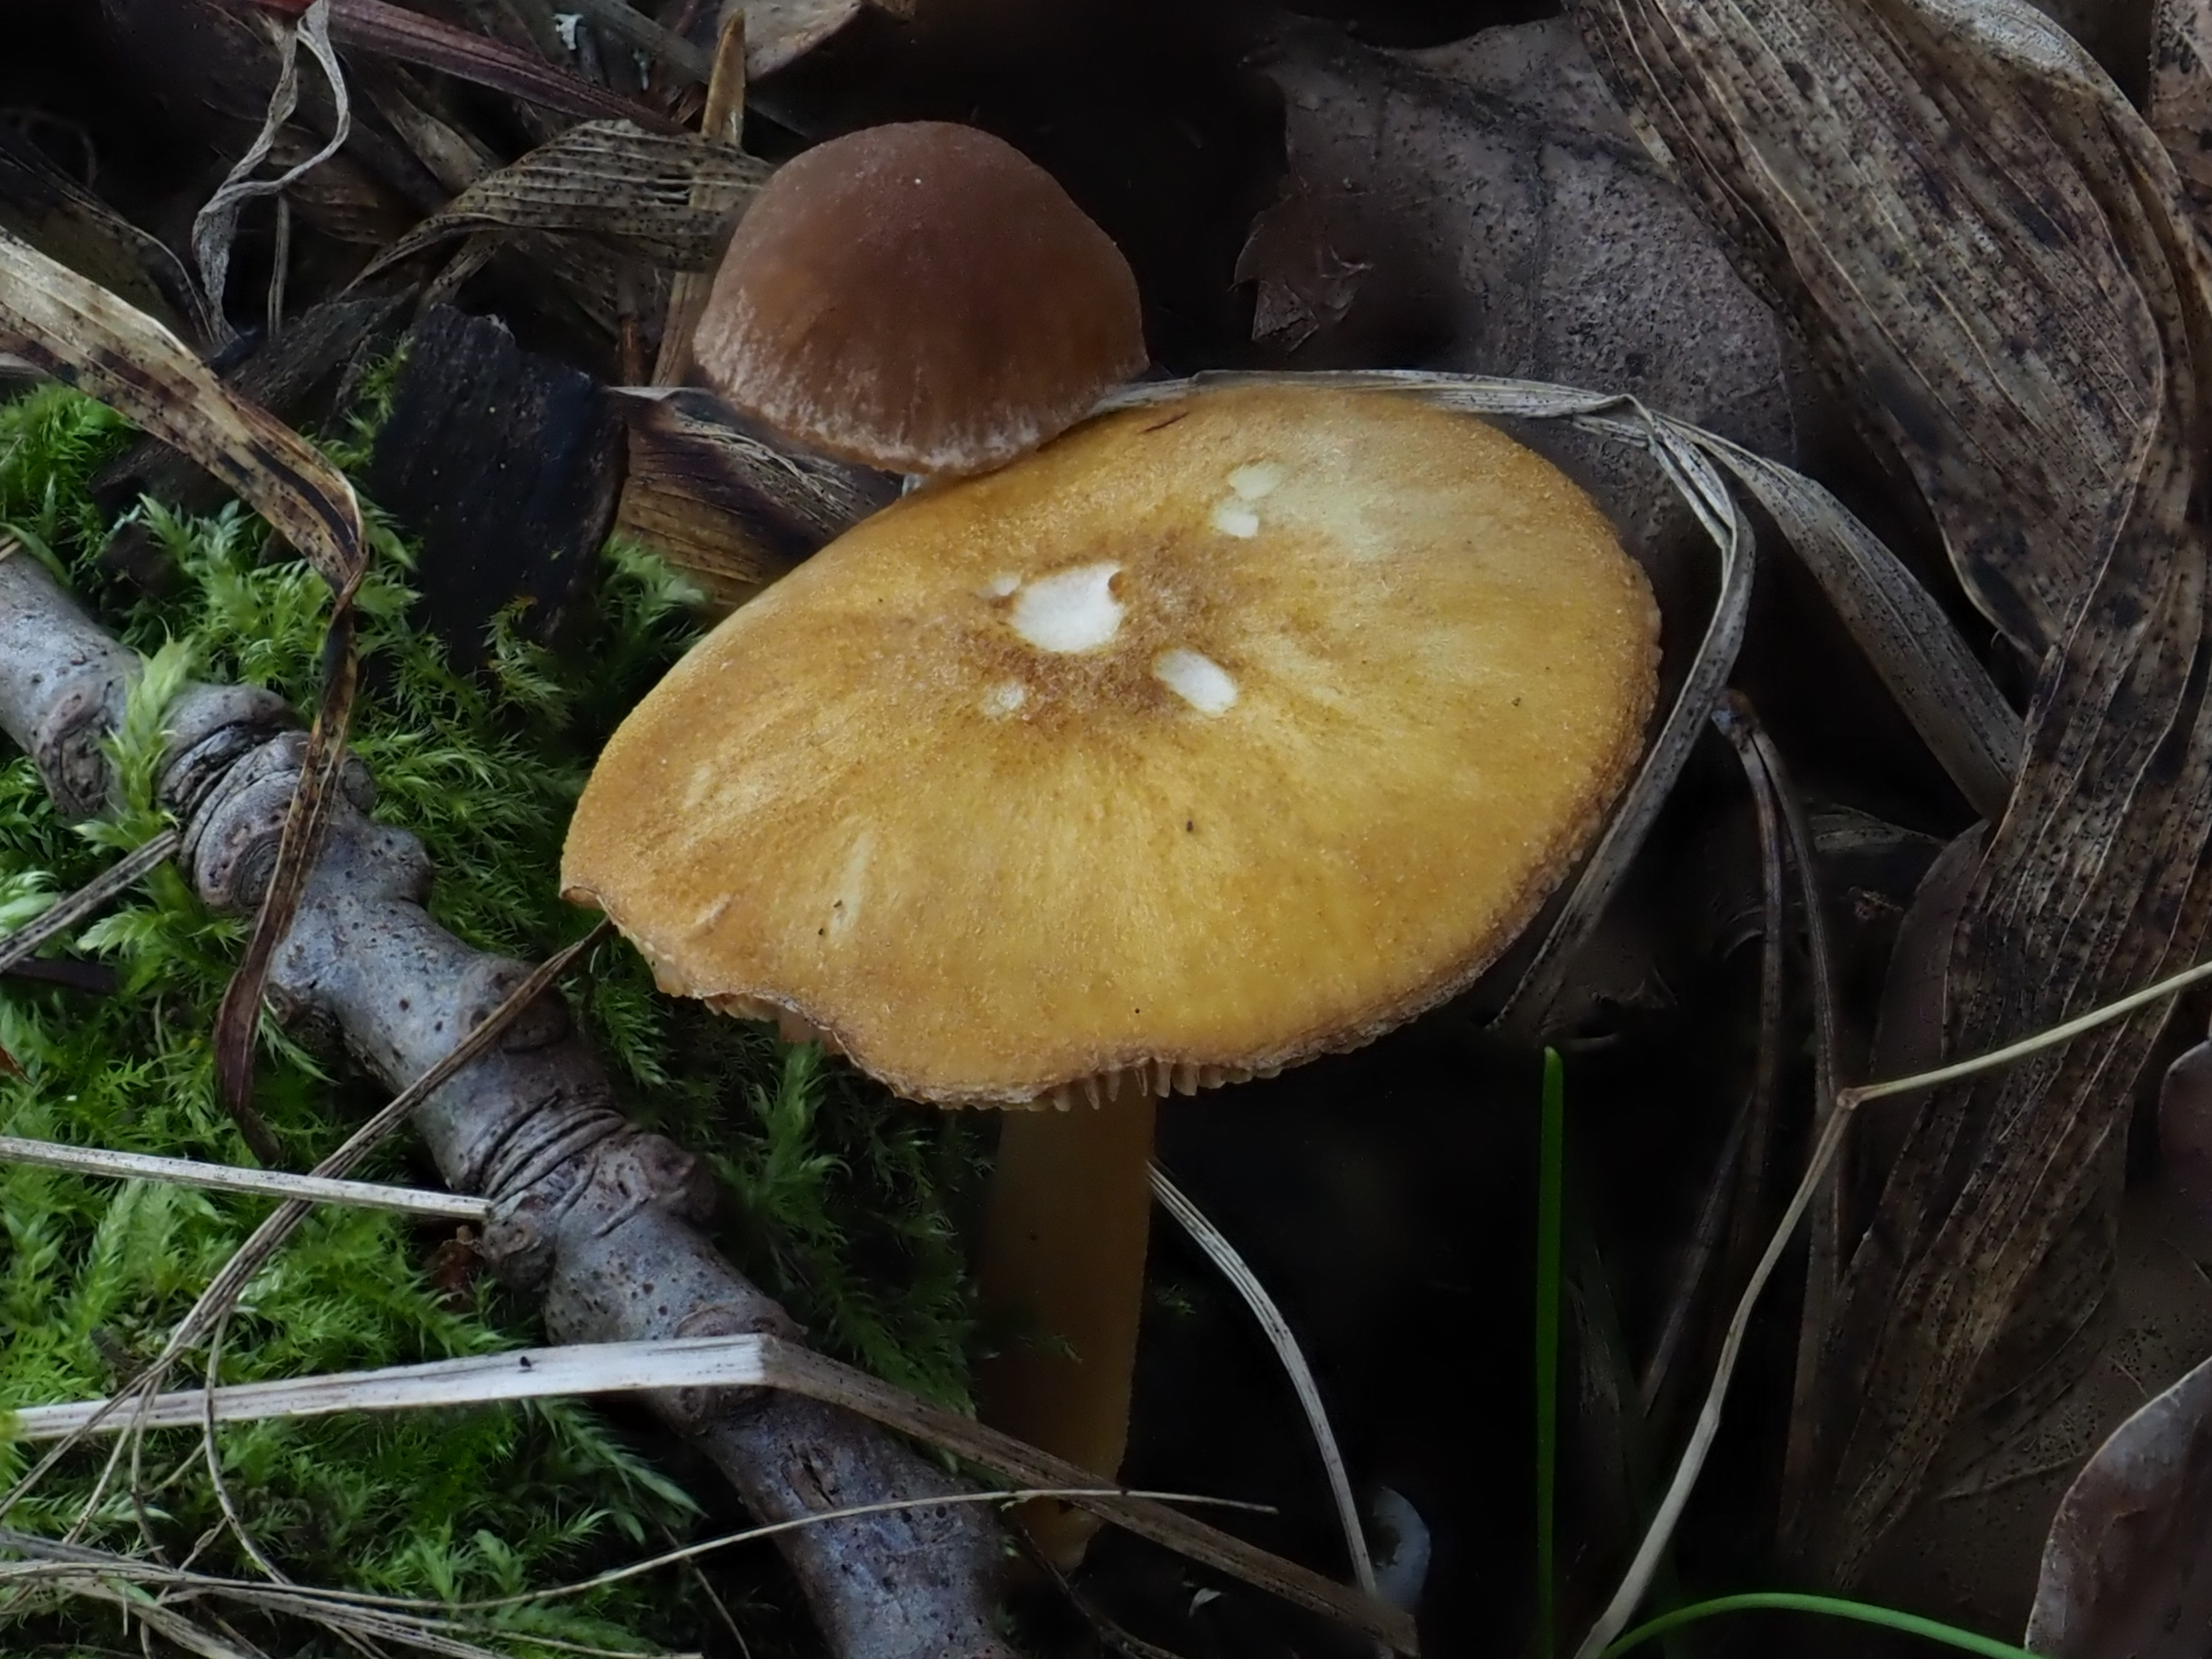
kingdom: Fungi
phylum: Basidiomycota
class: Agaricomycetes
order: Agaricales
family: Pluteaceae
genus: Pluteus
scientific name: Pluteus leoninus
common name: Lion shield
